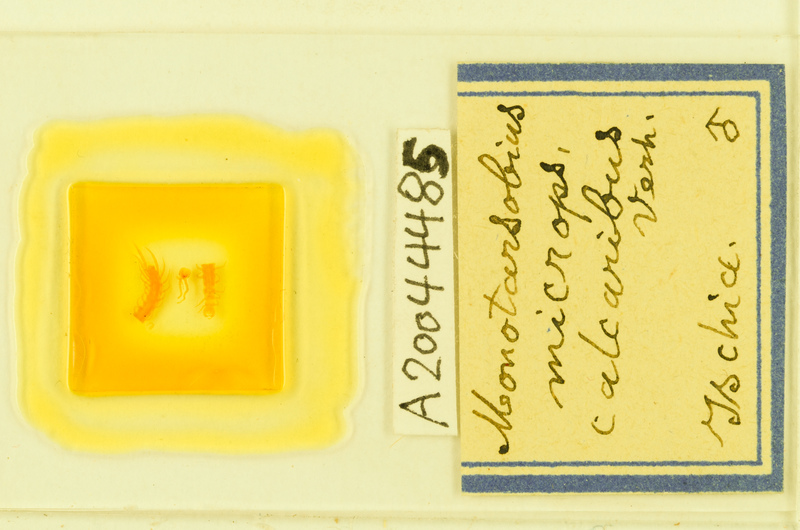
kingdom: Animalia
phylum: Arthropoda
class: Chilopoda
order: Lithobiomorpha
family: Lithobiidae
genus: Monotarsobius
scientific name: Monotarsobius microps
